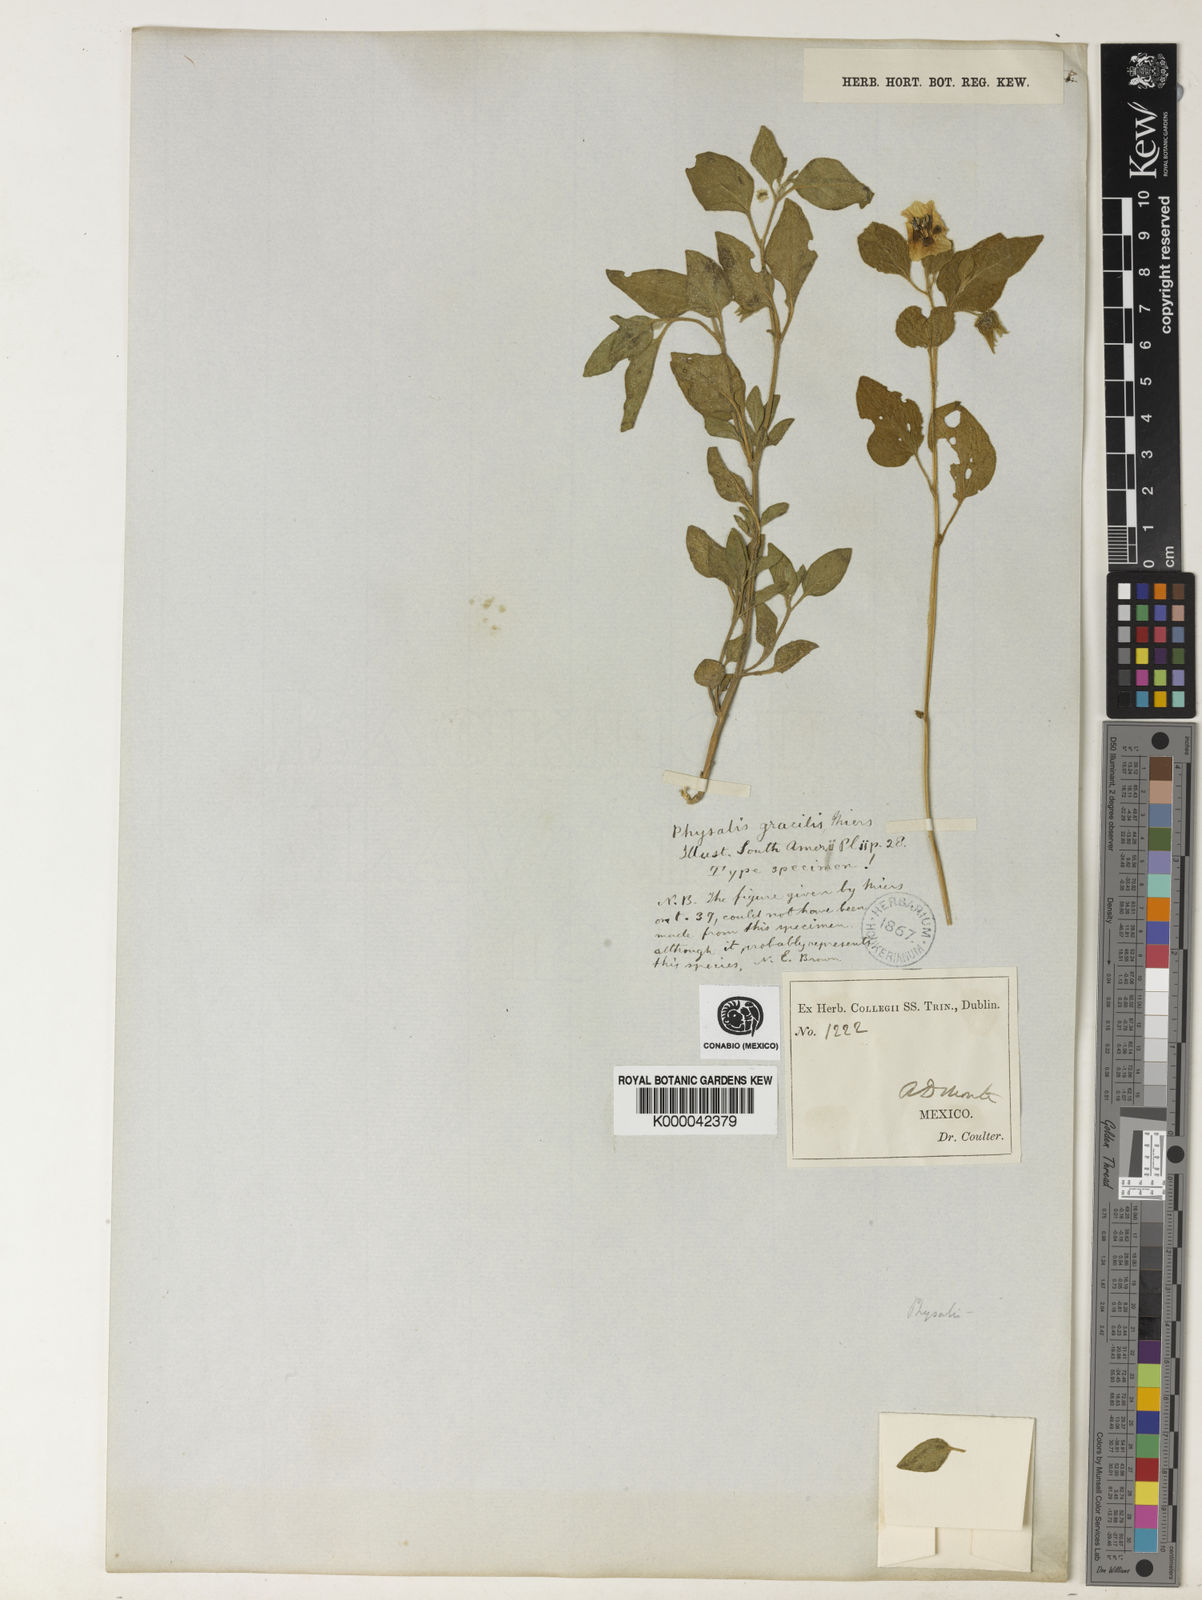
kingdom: Plantae
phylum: Tracheophyta
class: Magnoliopsida
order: Solanales
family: Solanaceae
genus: Physalis
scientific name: Physalis gracilis
